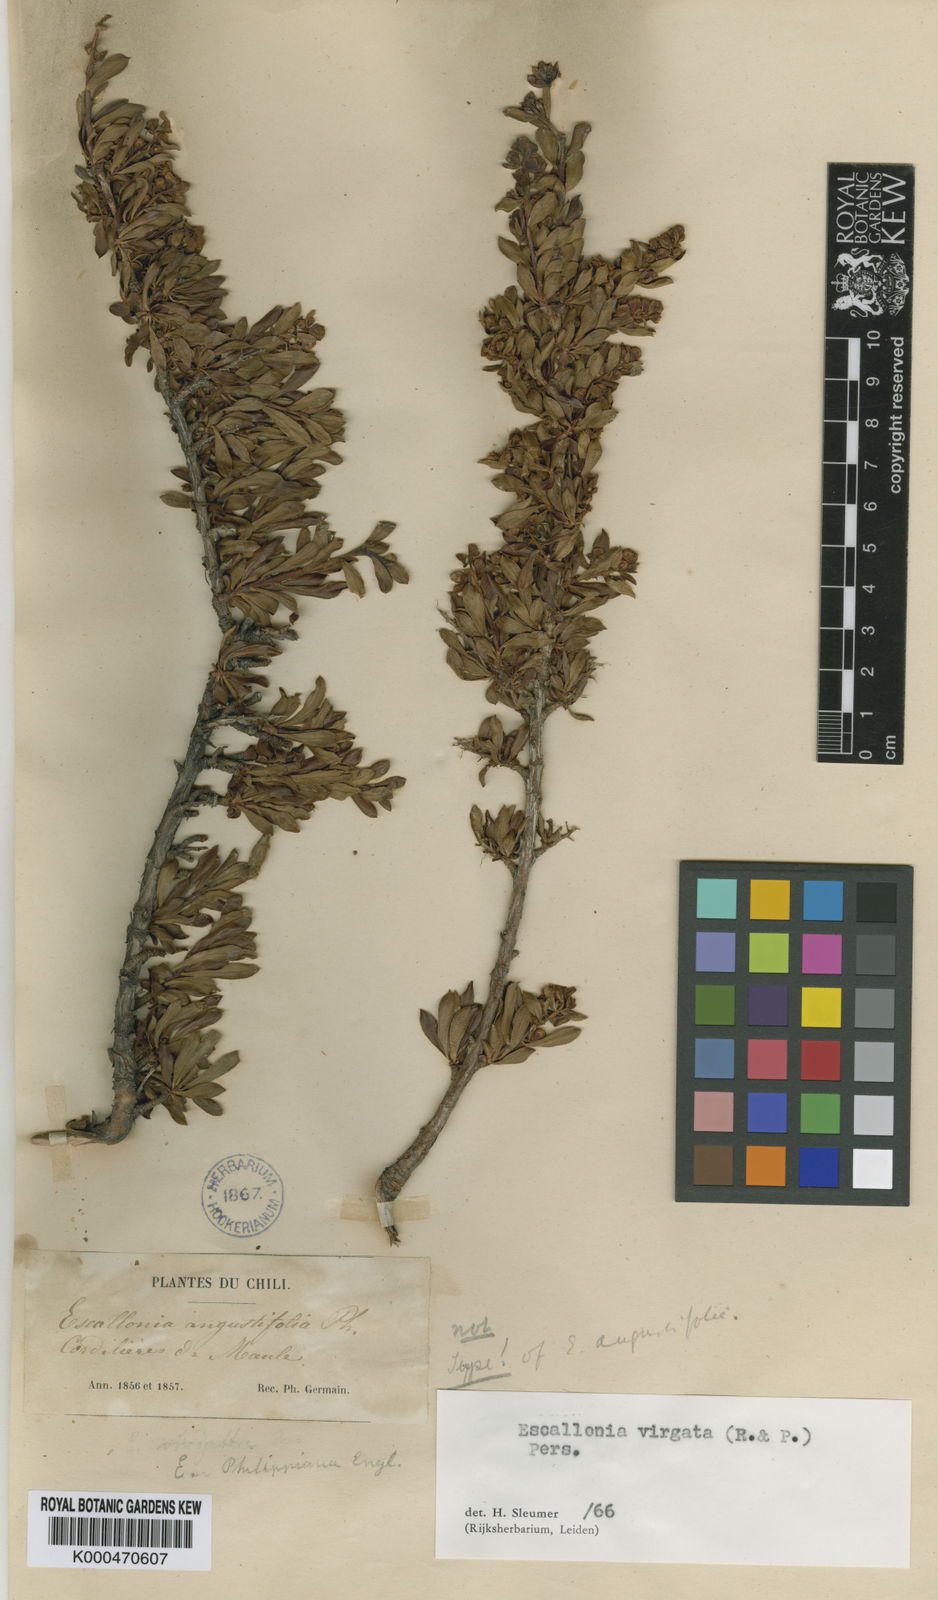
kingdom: Plantae
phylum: Tracheophyta
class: Magnoliopsida
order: Escalloniales
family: Escalloniaceae
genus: Escallonia
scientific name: Escallonia virgata
